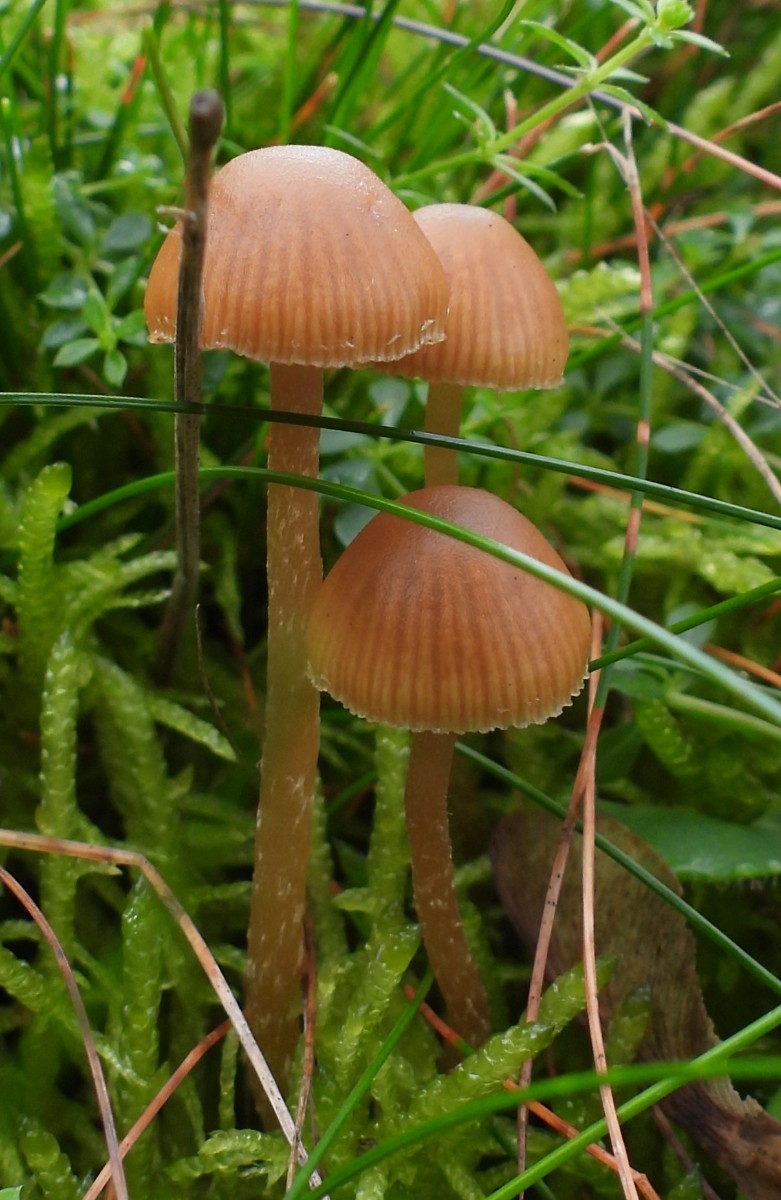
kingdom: Fungi
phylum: Basidiomycota
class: Agaricomycetes
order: Agaricales
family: Hymenogastraceae
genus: Galerina
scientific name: Galerina
